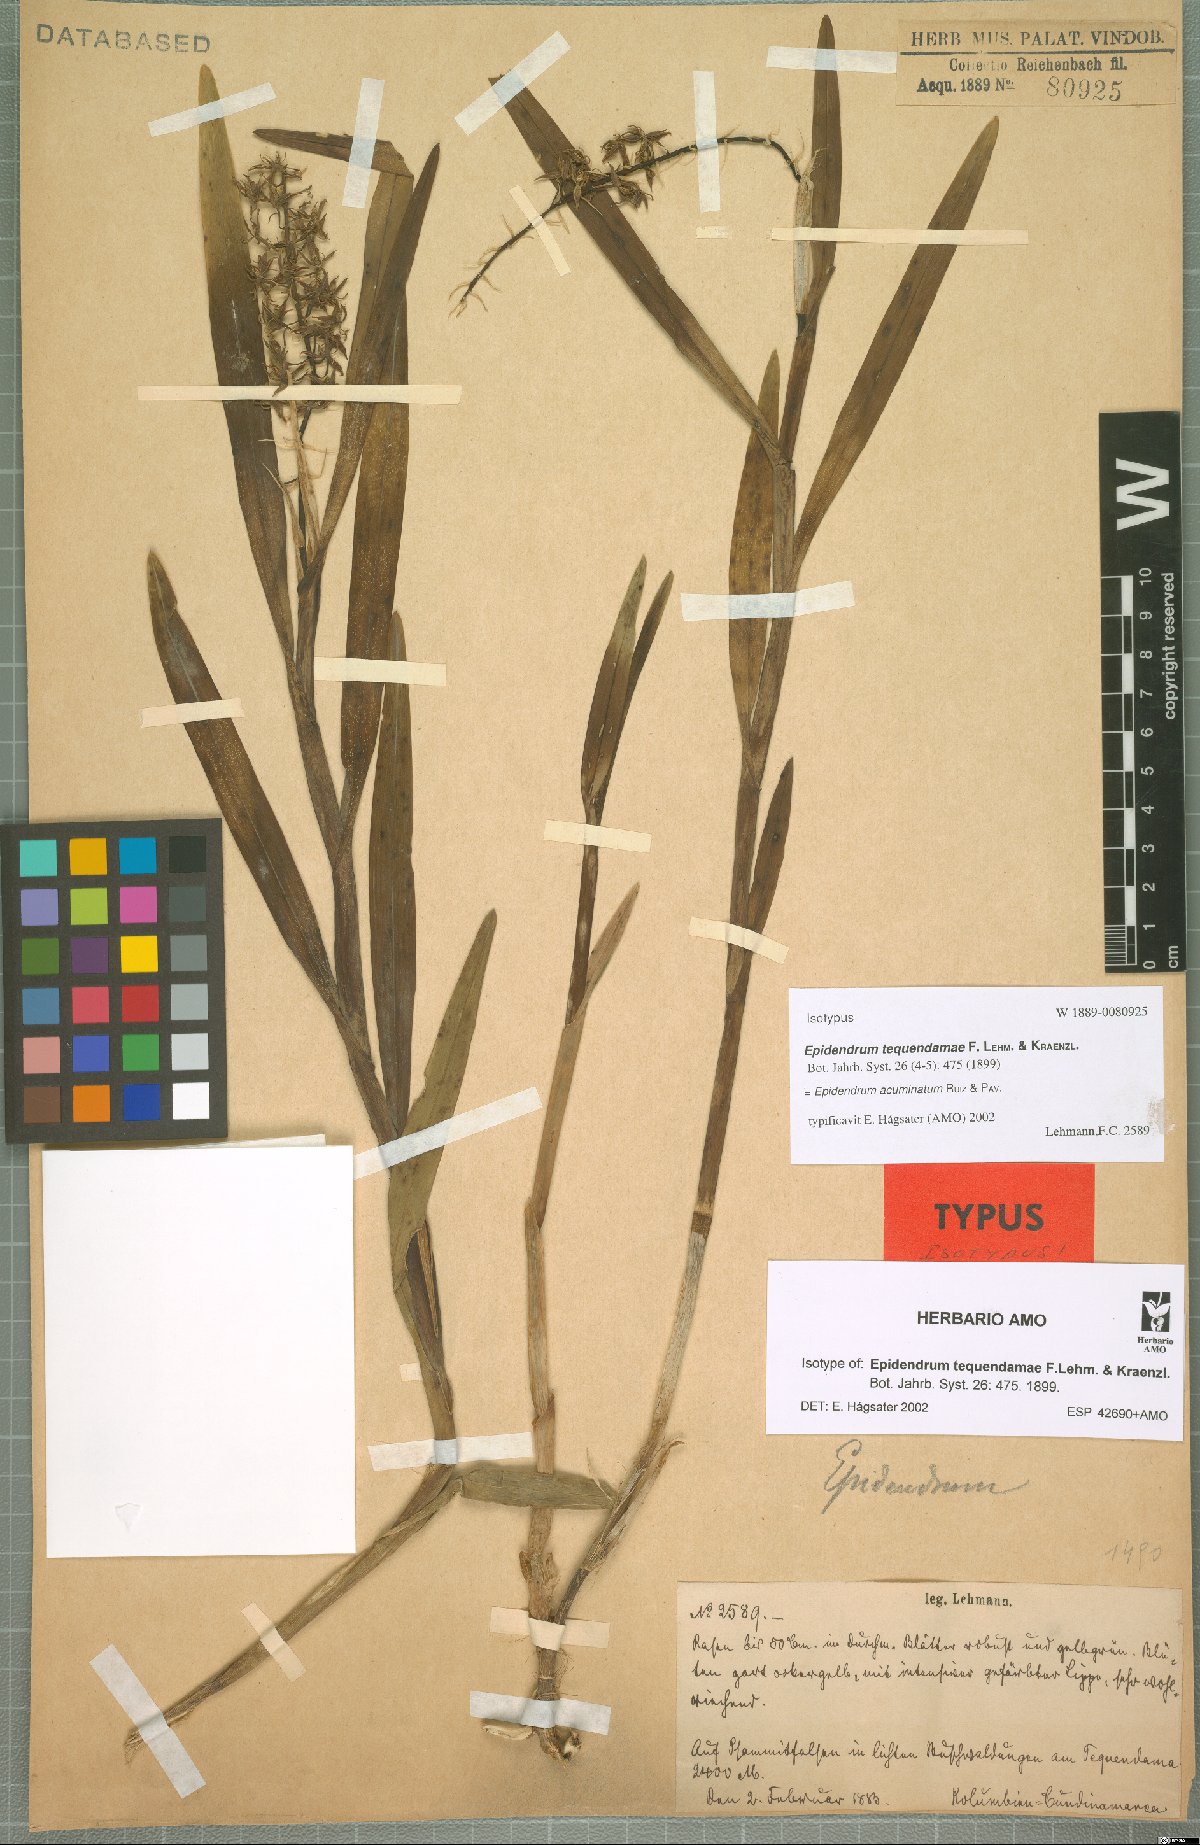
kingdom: Plantae
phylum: Tracheophyta
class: Liliopsida
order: Asparagales
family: Orchidaceae
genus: Epidendrum
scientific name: Epidendrum acuminatum
